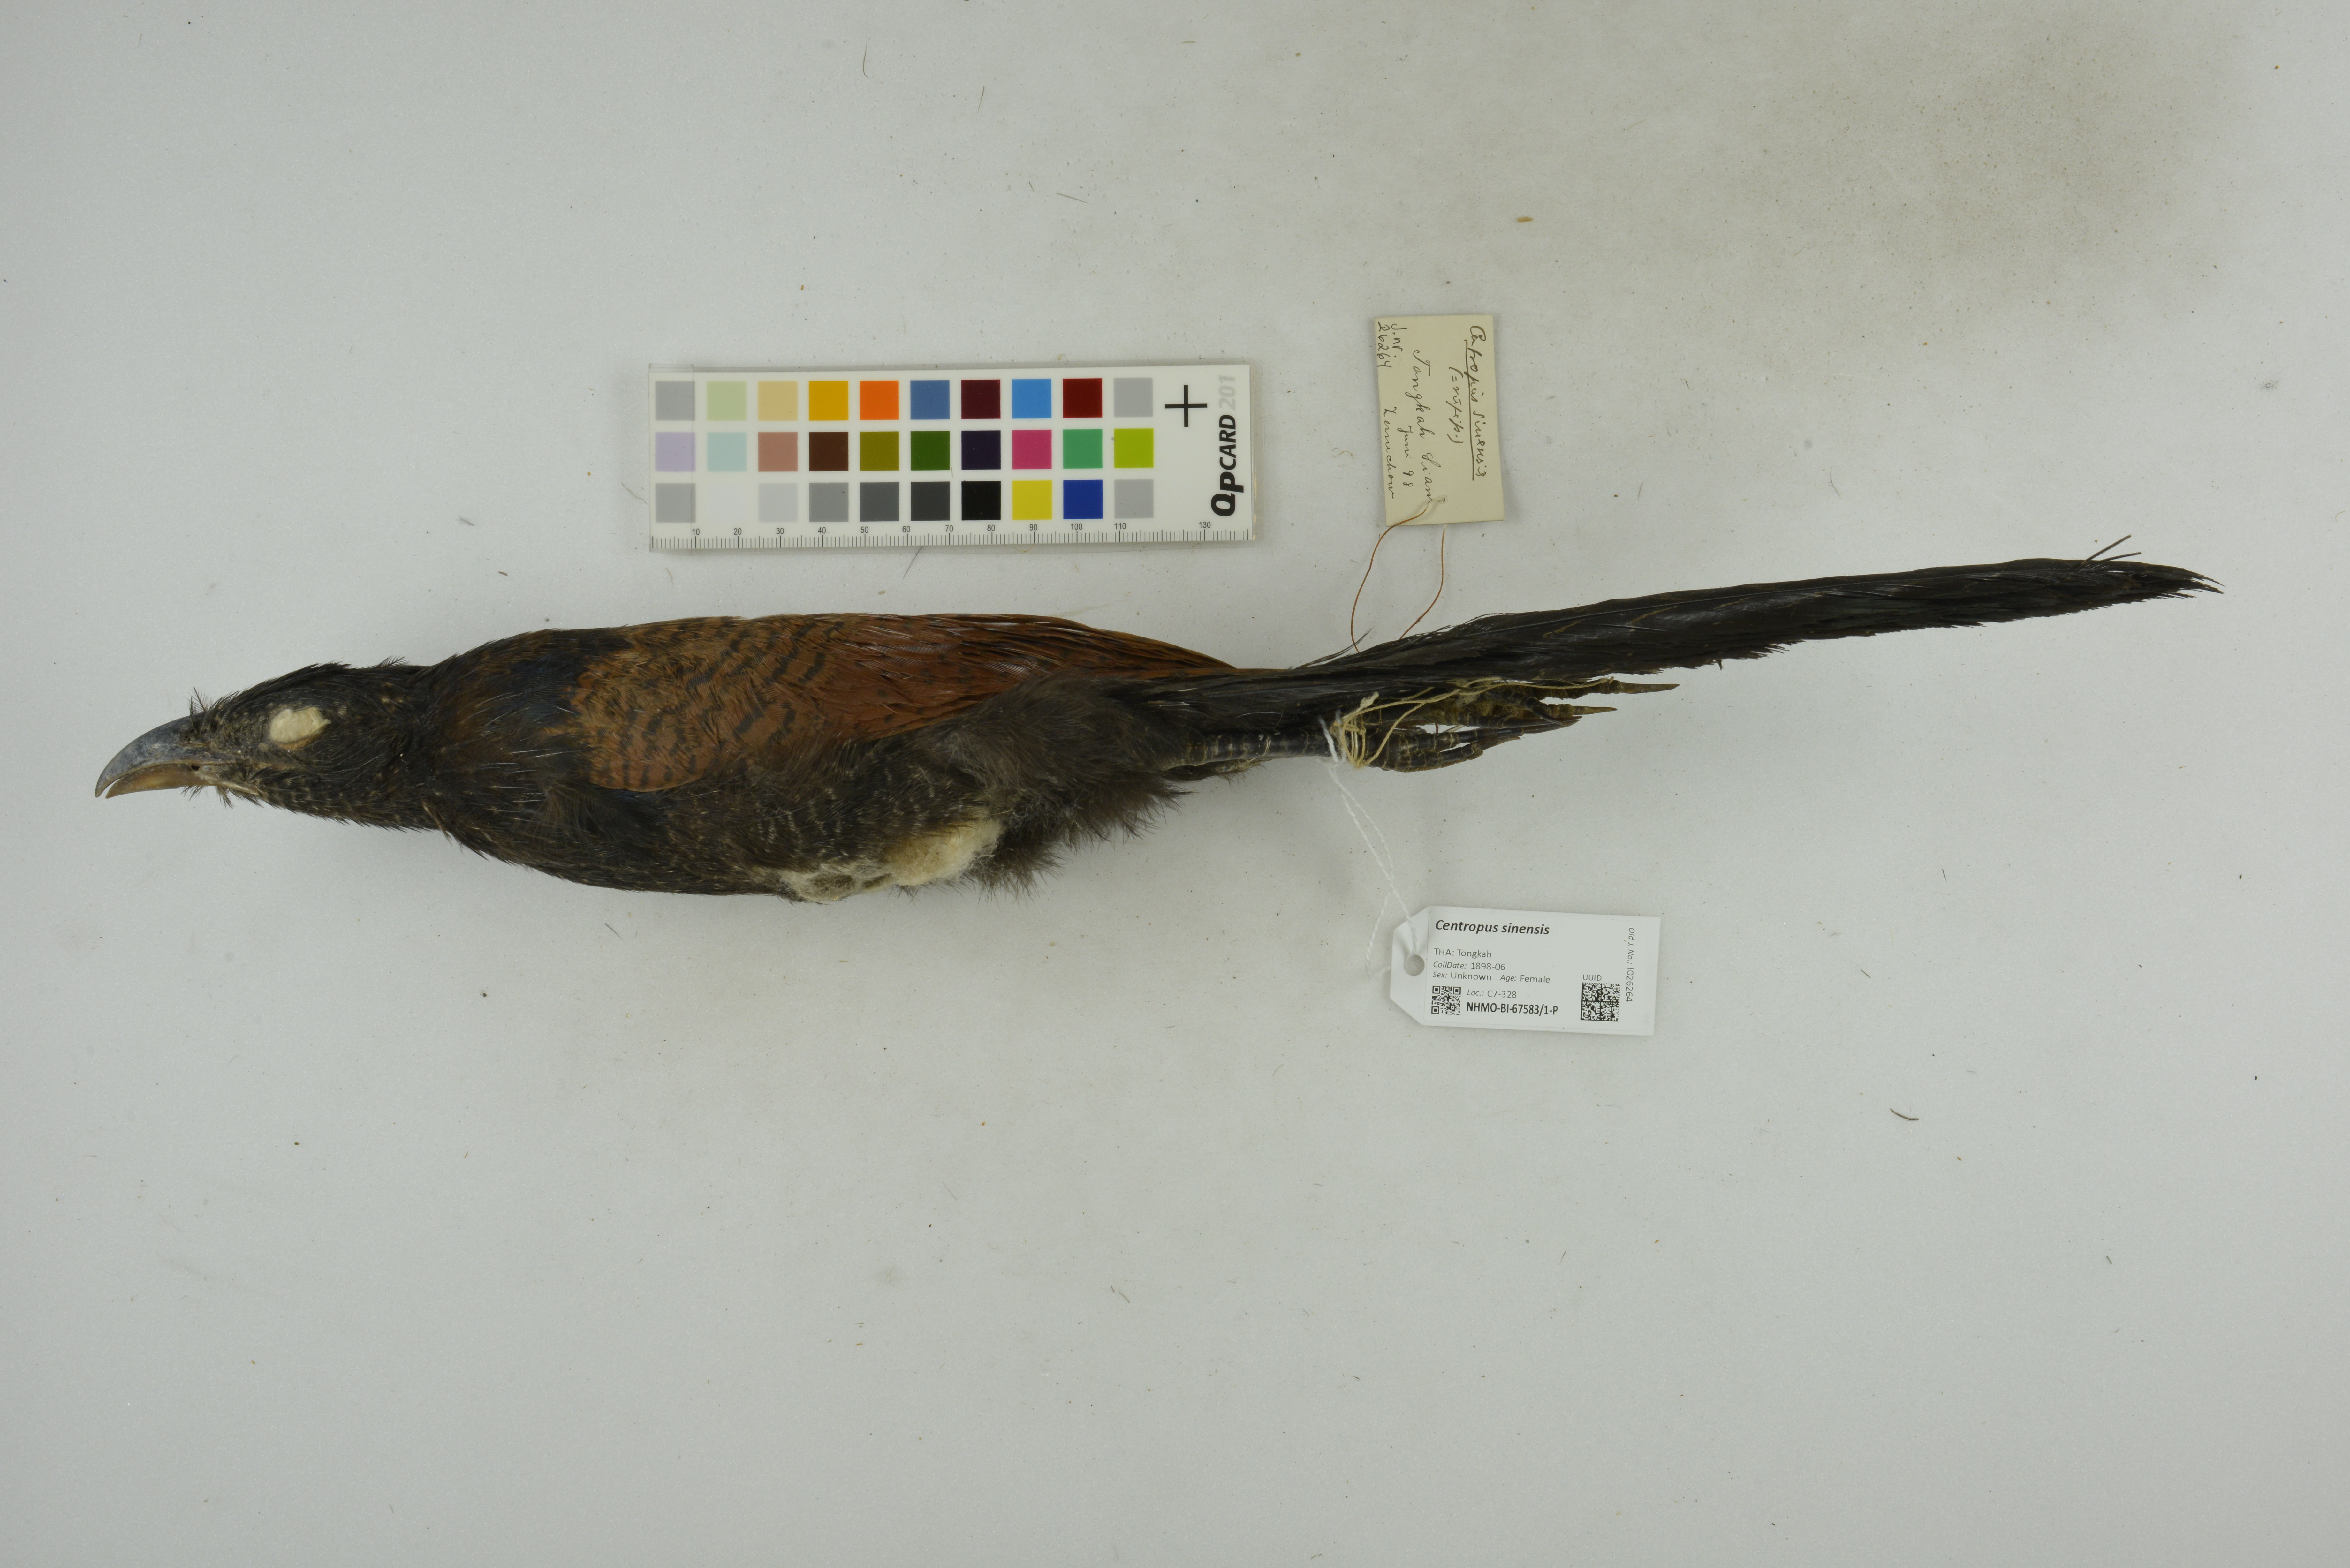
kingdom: Animalia
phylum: Chordata
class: Aves
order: Cuculiformes
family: Cuculidae
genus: Centropus
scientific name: Centropus sinensis
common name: Greater coucal
